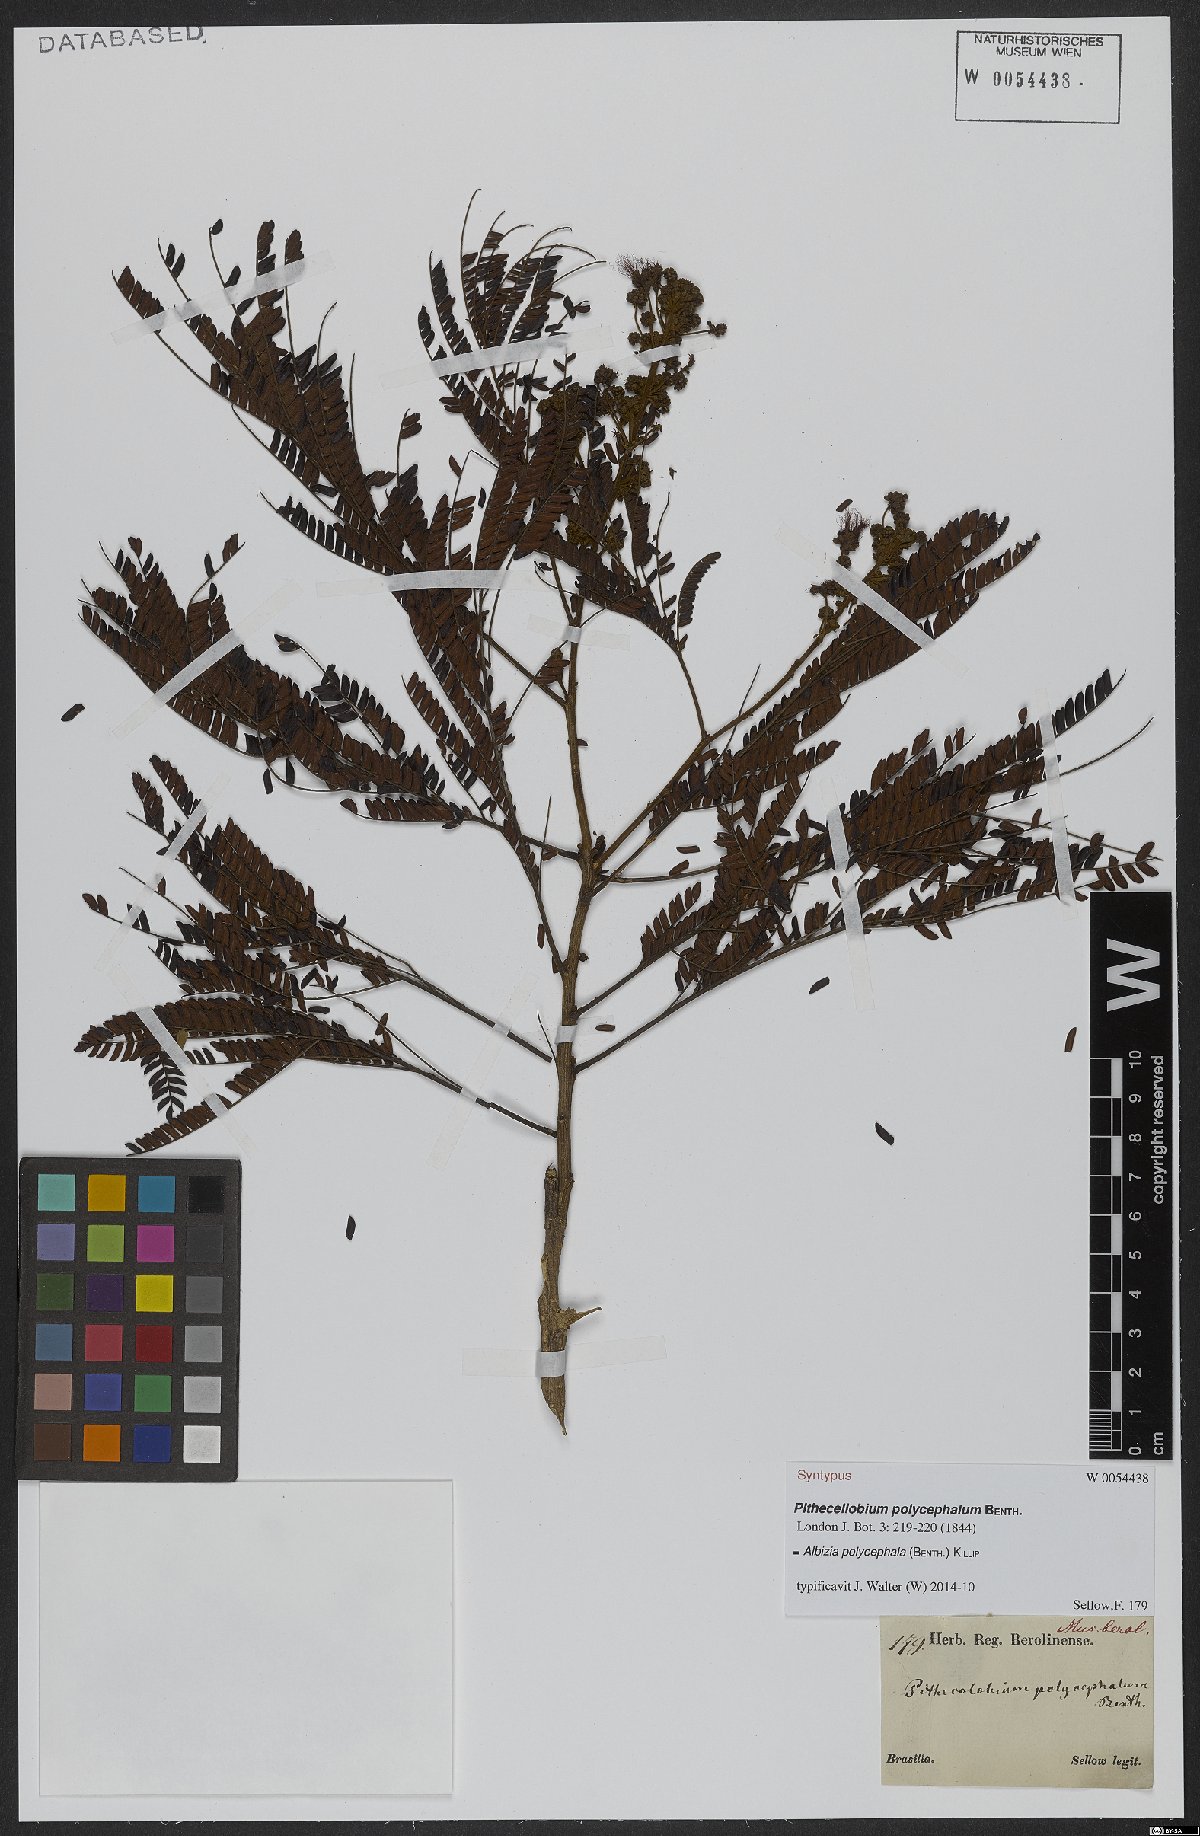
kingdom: Plantae
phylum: Tracheophyta
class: Magnoliopsida
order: Fabales
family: Fabaceae
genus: Albizia
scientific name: Albizia polycephala
